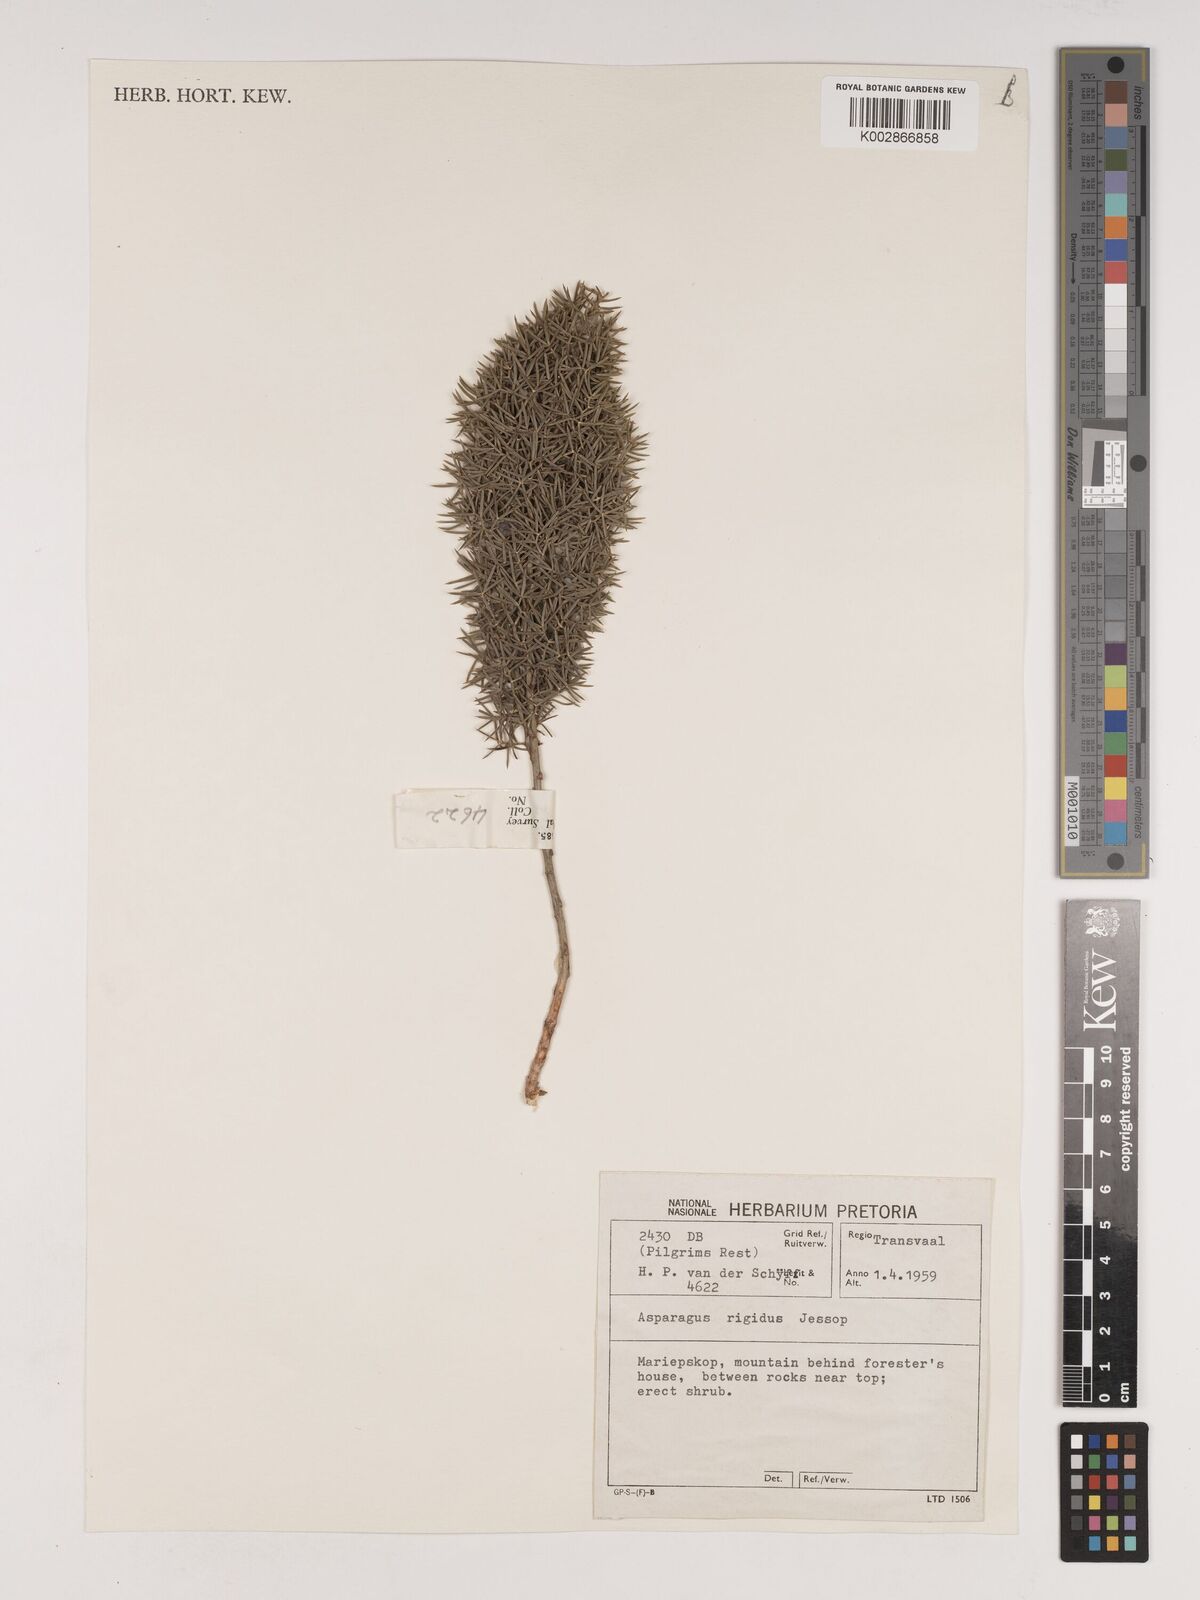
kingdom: Plantae
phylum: Tracheophyta
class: Liliopsida
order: Asparagales
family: Asparagaceae
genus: Asparagus
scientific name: Asparagus rigidus
